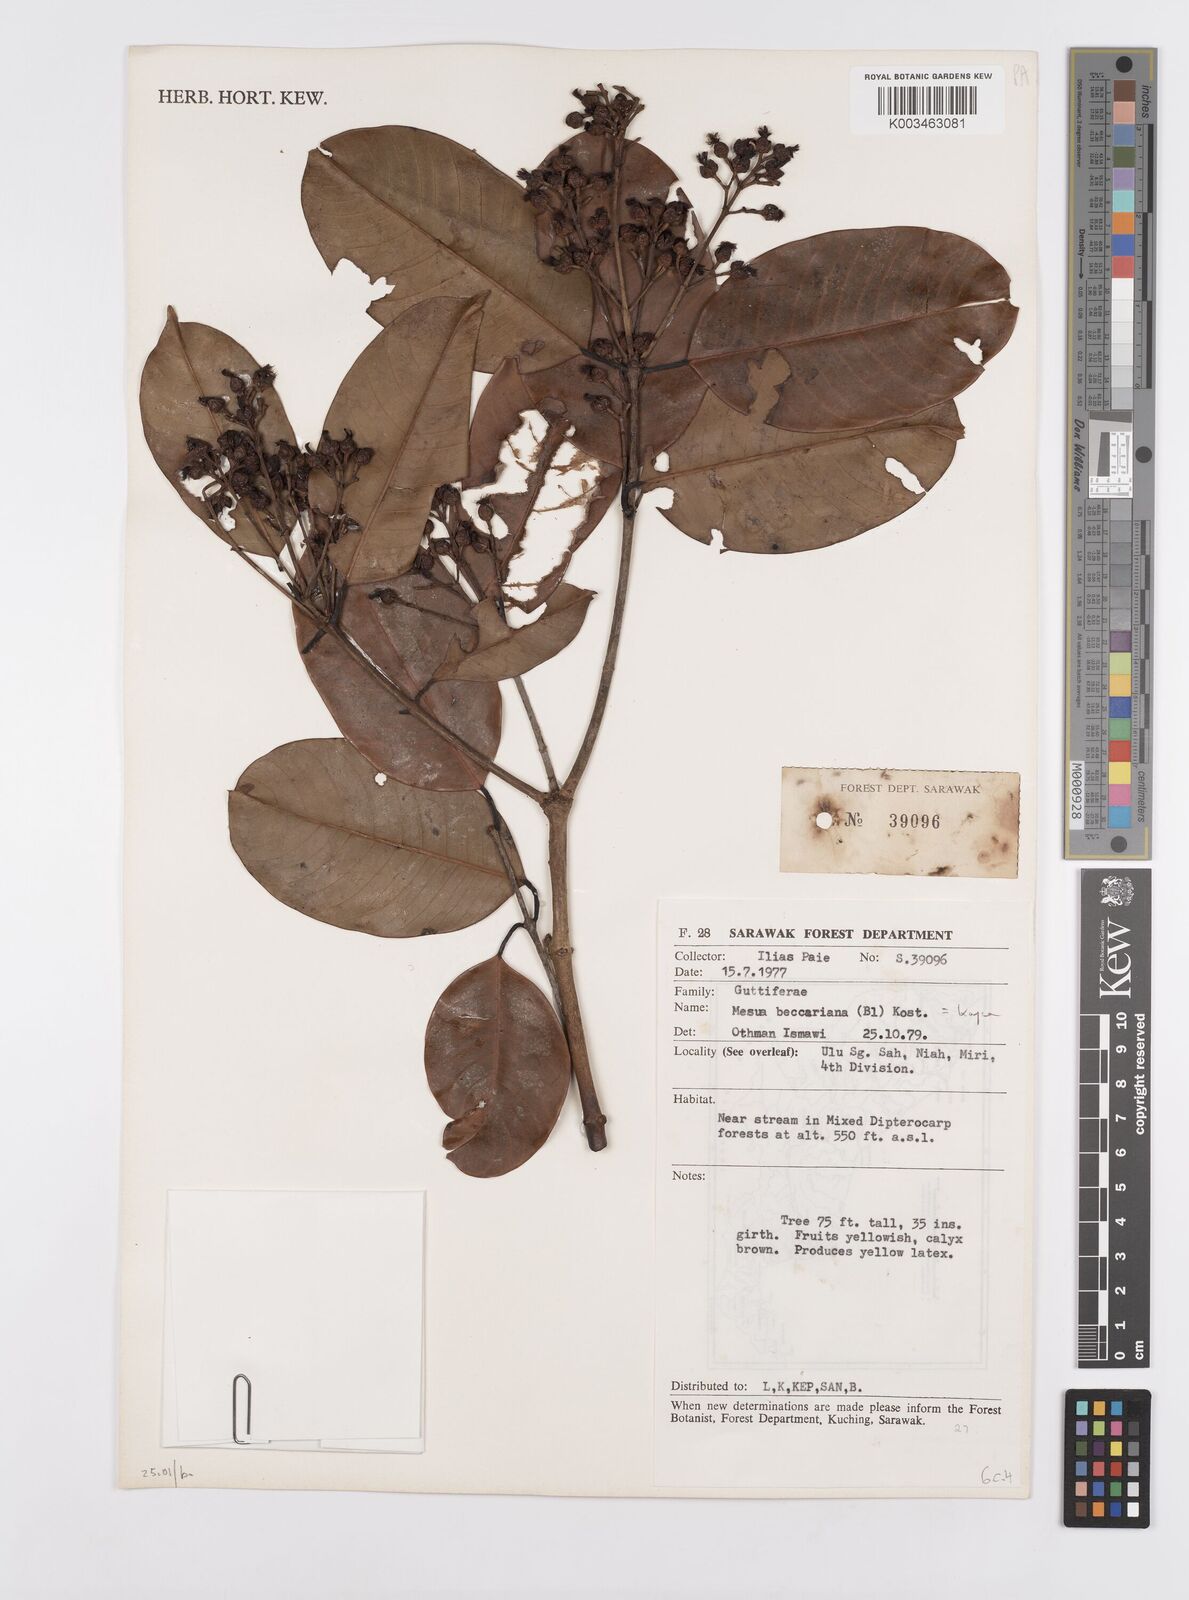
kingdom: Plantae
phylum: Tracheophyta
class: Magnoliopsida
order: Malpighiales
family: Calophyllaceae
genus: Kayea
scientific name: Kayea beccariana
